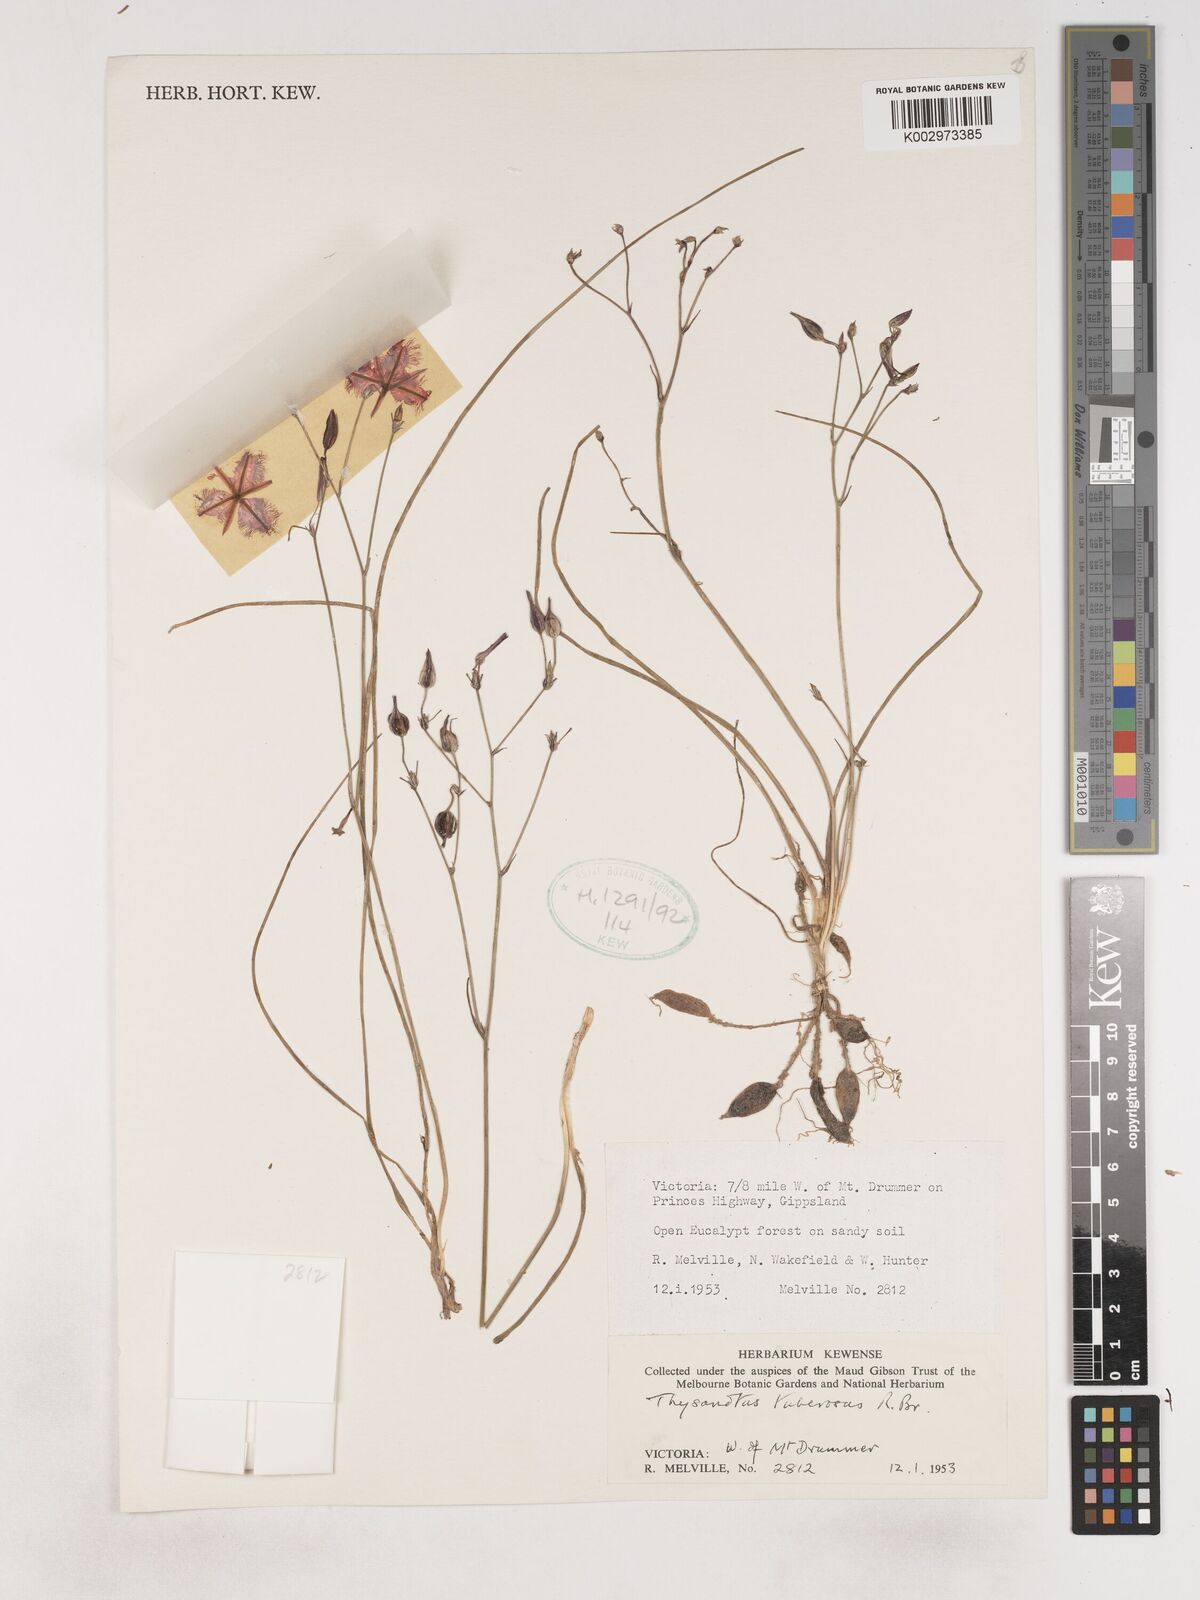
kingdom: Plantae
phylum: Tracheophyta
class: Liliopsida
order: Asparagales
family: Asparagaceae
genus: Thysanotus
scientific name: Thysanotus tuberosus
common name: Common fringed-lily
